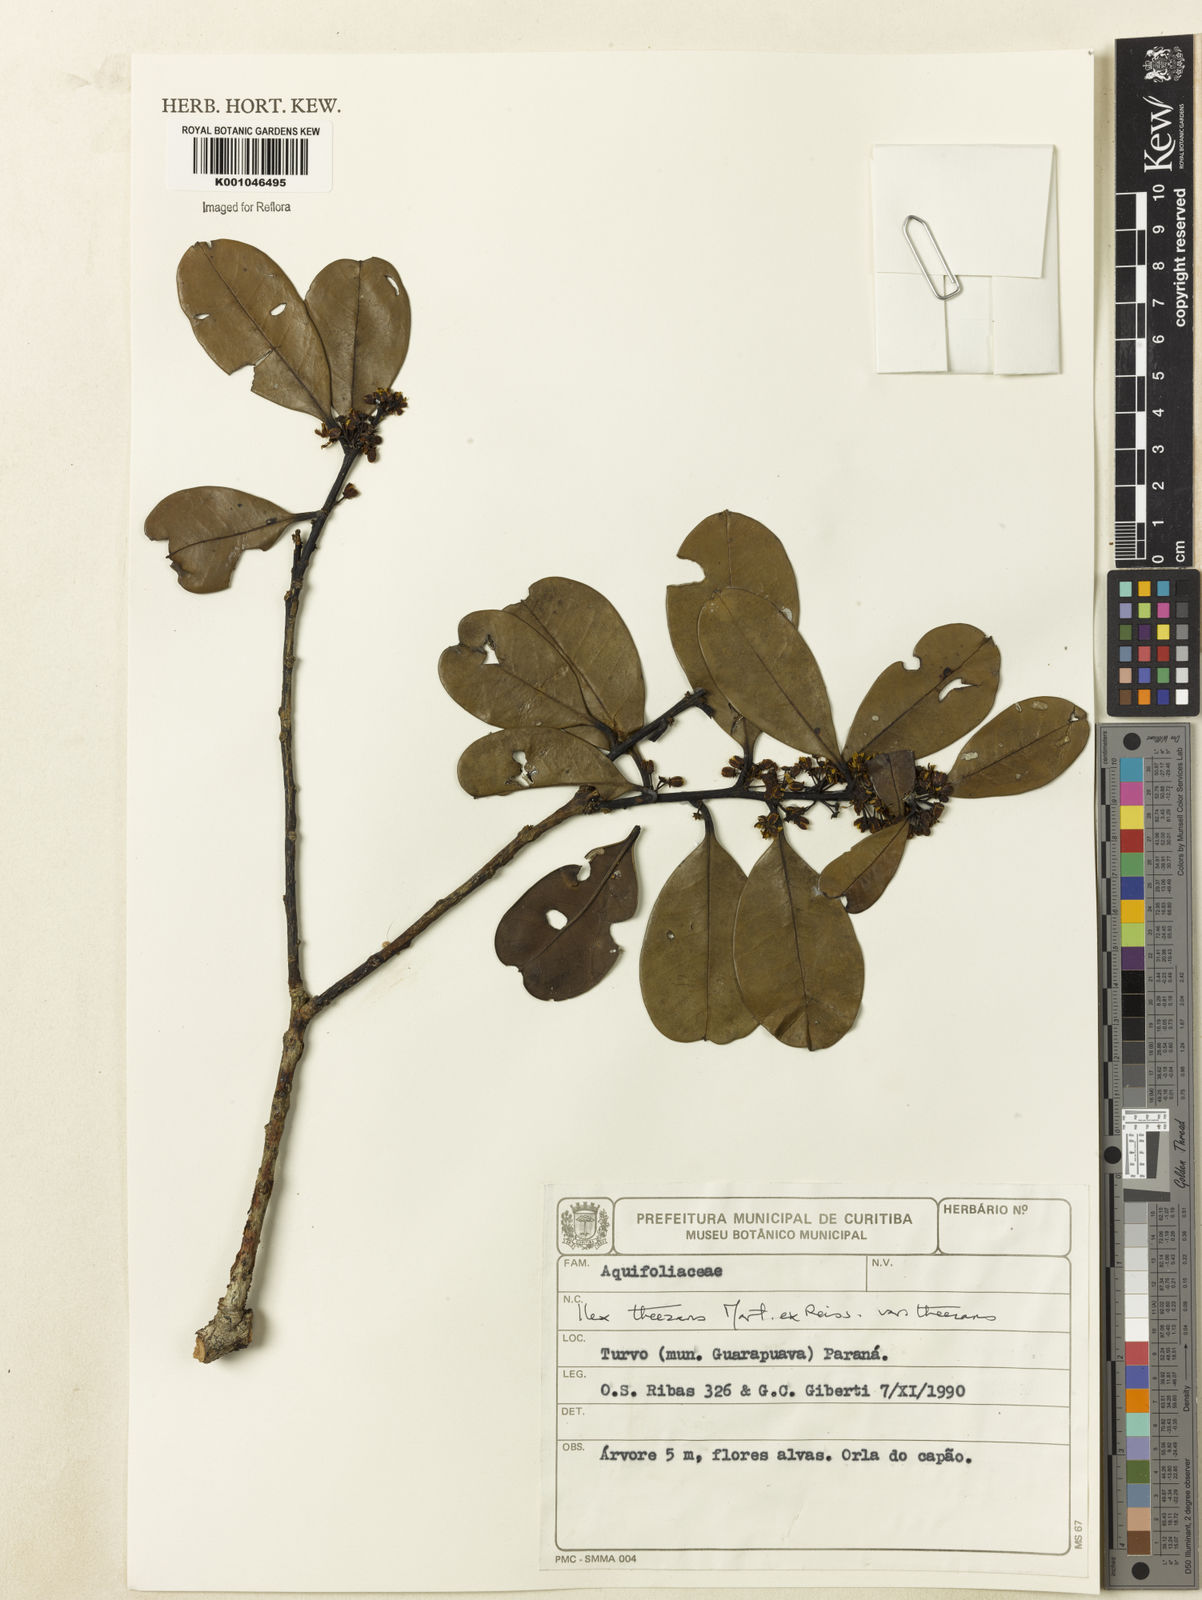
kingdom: Plantae
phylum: Tracheophyta
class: Magnoliopsida
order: Aquifoliales
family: Aquifoliaceae
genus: Ilex
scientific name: Ilex paraguariensis
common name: Paraguay tea
